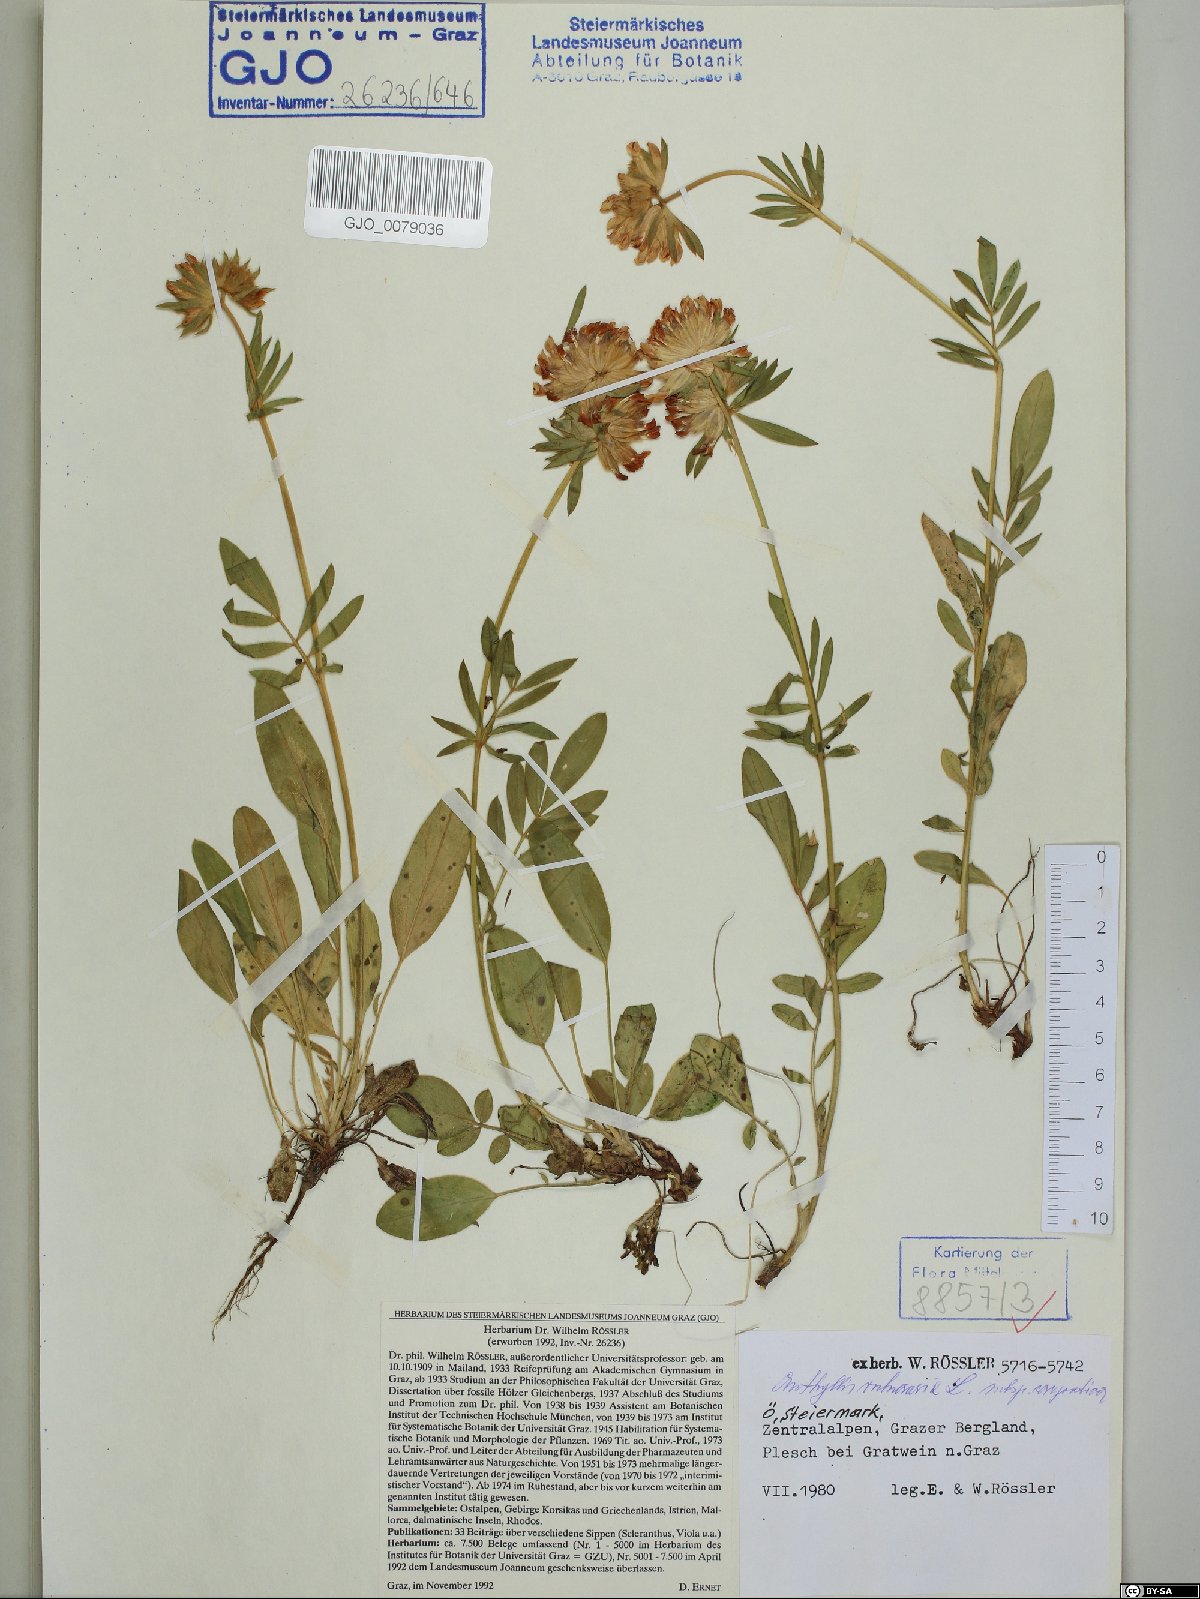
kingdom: Plantae
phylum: Tracheophyta
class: Magnoliopsida
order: Fabales
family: Fabaceae
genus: Anthyllis
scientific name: Anthyllis vulneraria
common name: Kidney vetch
